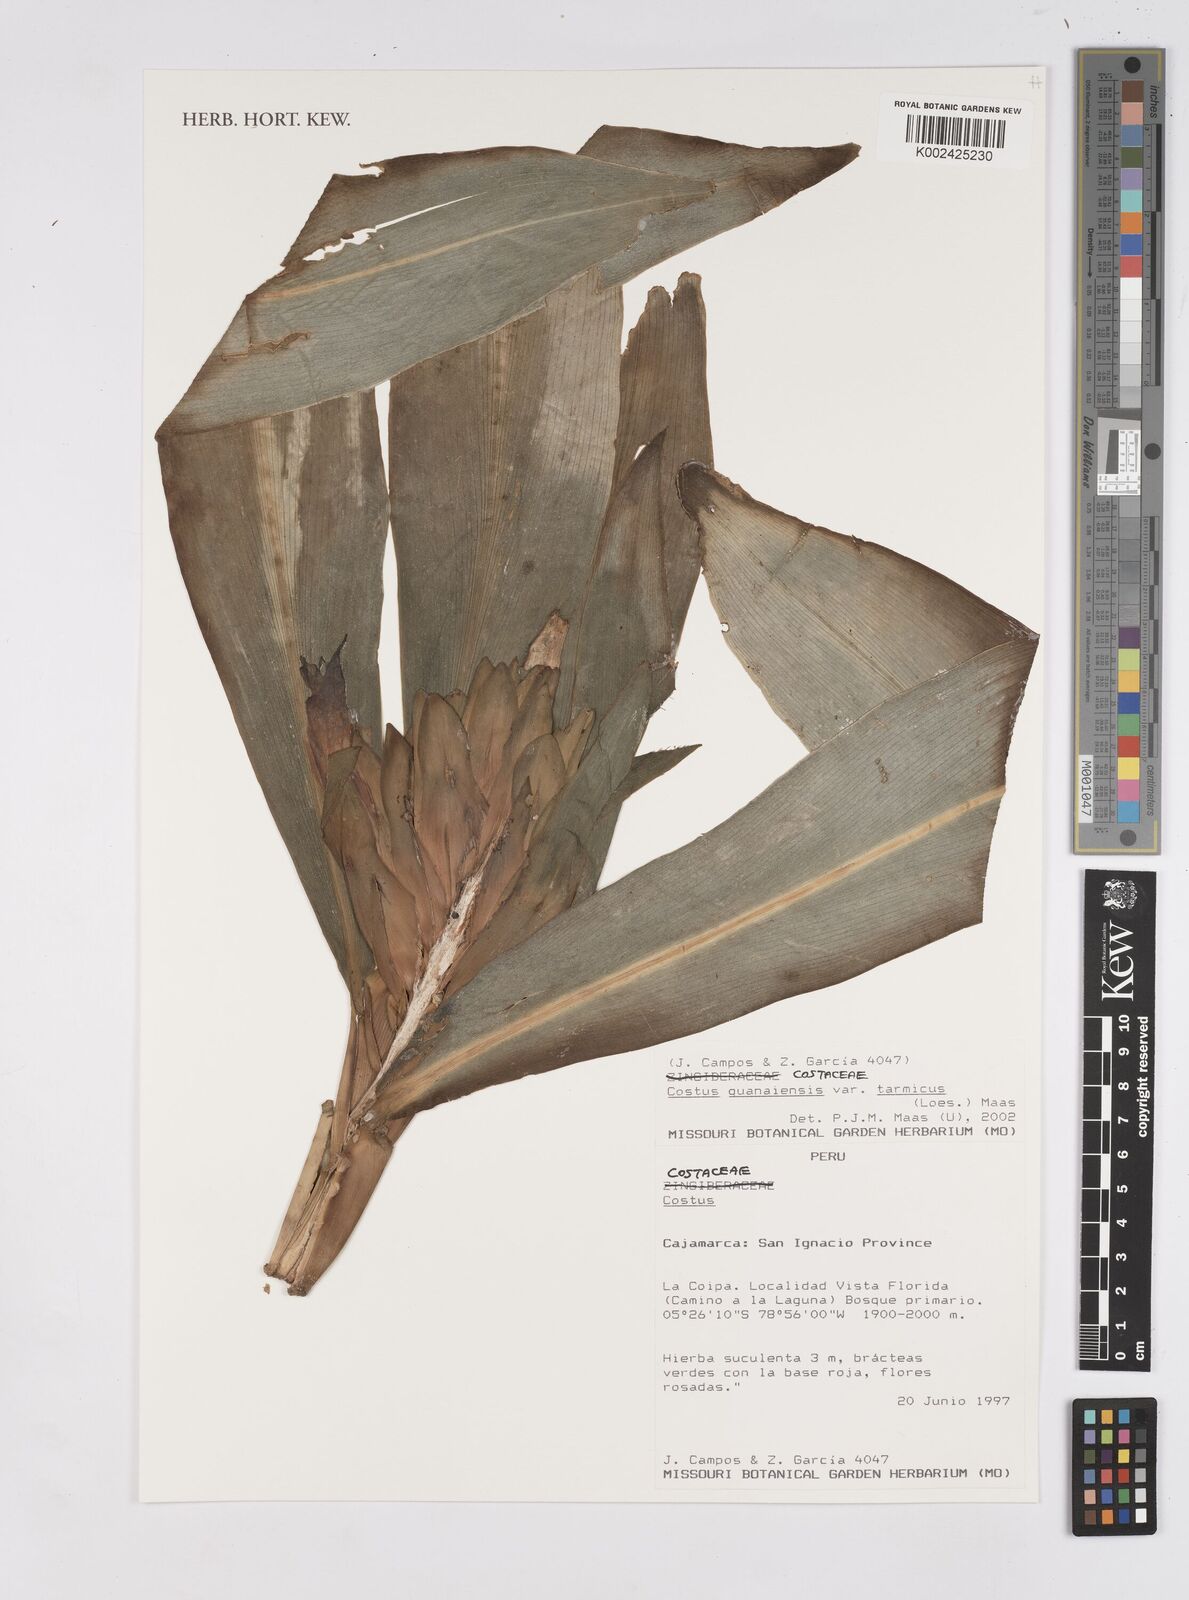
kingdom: Plantae
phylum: Tracheophyta
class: Liliopsida
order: Zingiberales
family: Costaceae
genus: Costus
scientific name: Costus guanaiensis
